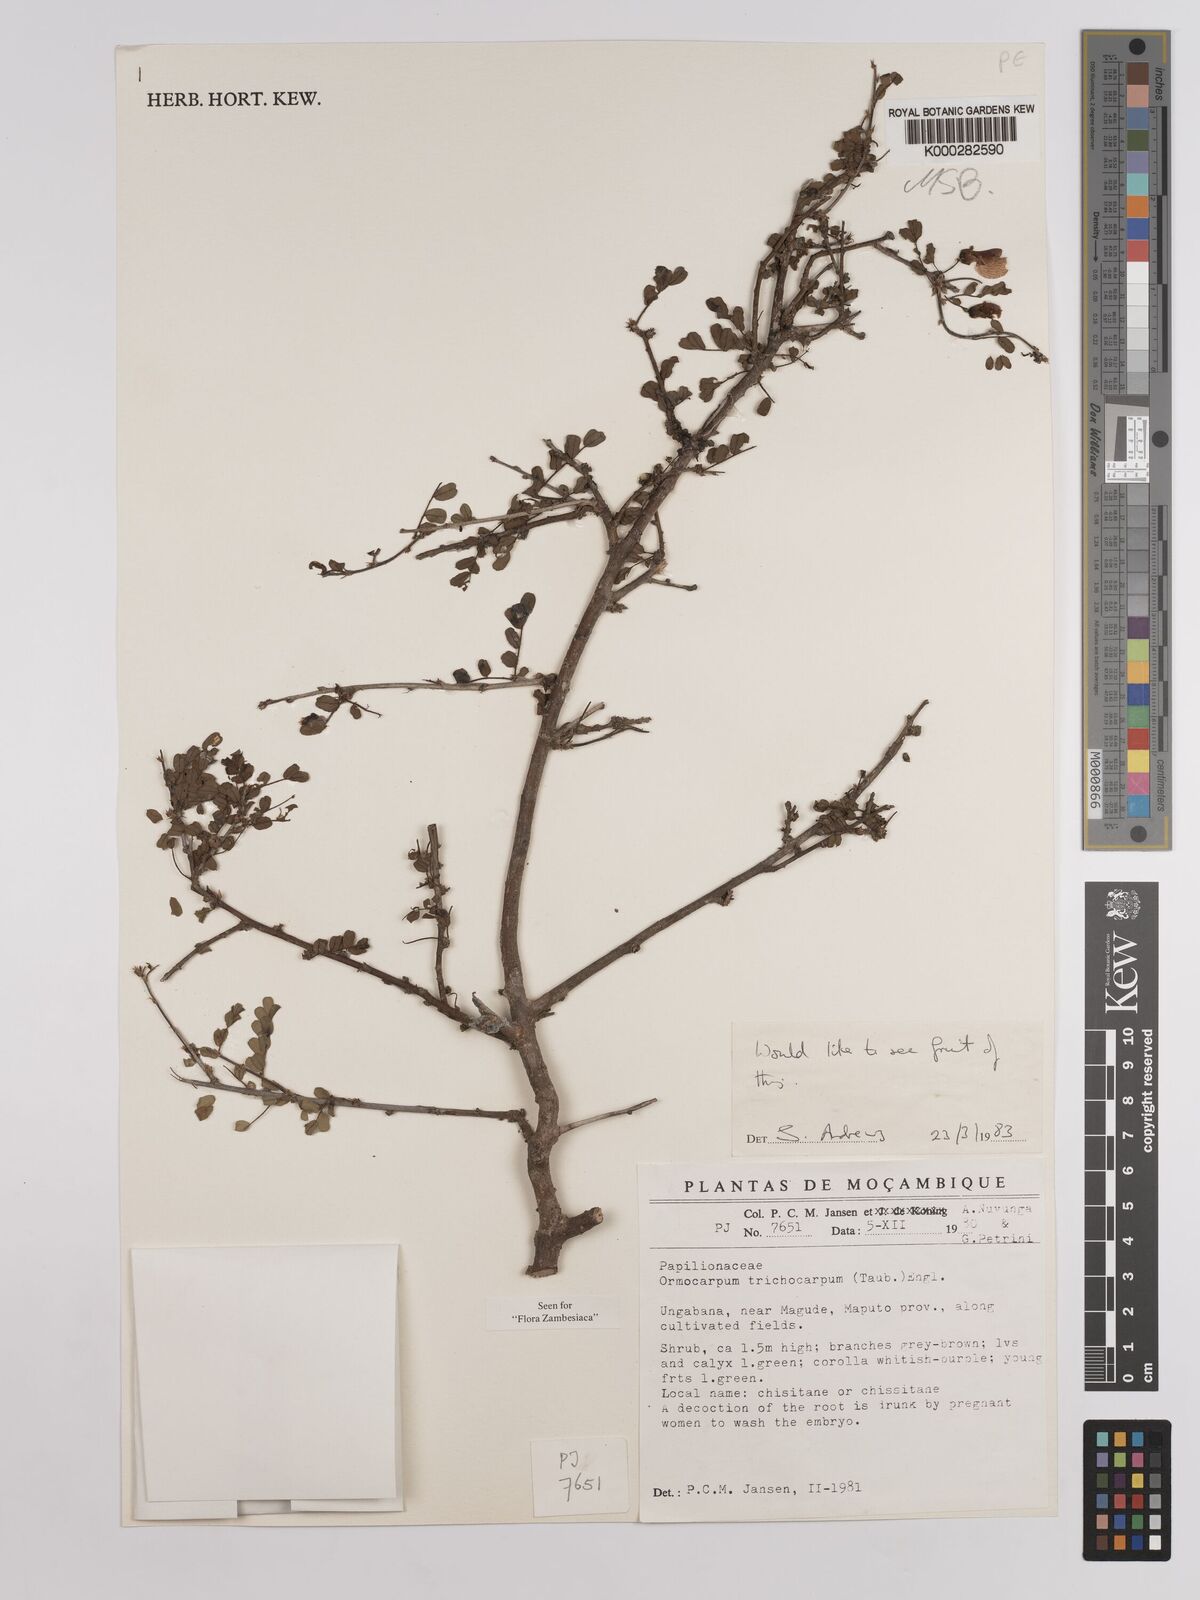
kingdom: Plantae
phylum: Tracheophyta
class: Magnoliopsida
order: Fabales
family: Fabaceae
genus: Ormocarpum
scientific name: Ormocarpum trichocarpum
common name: Caterpillar bush
